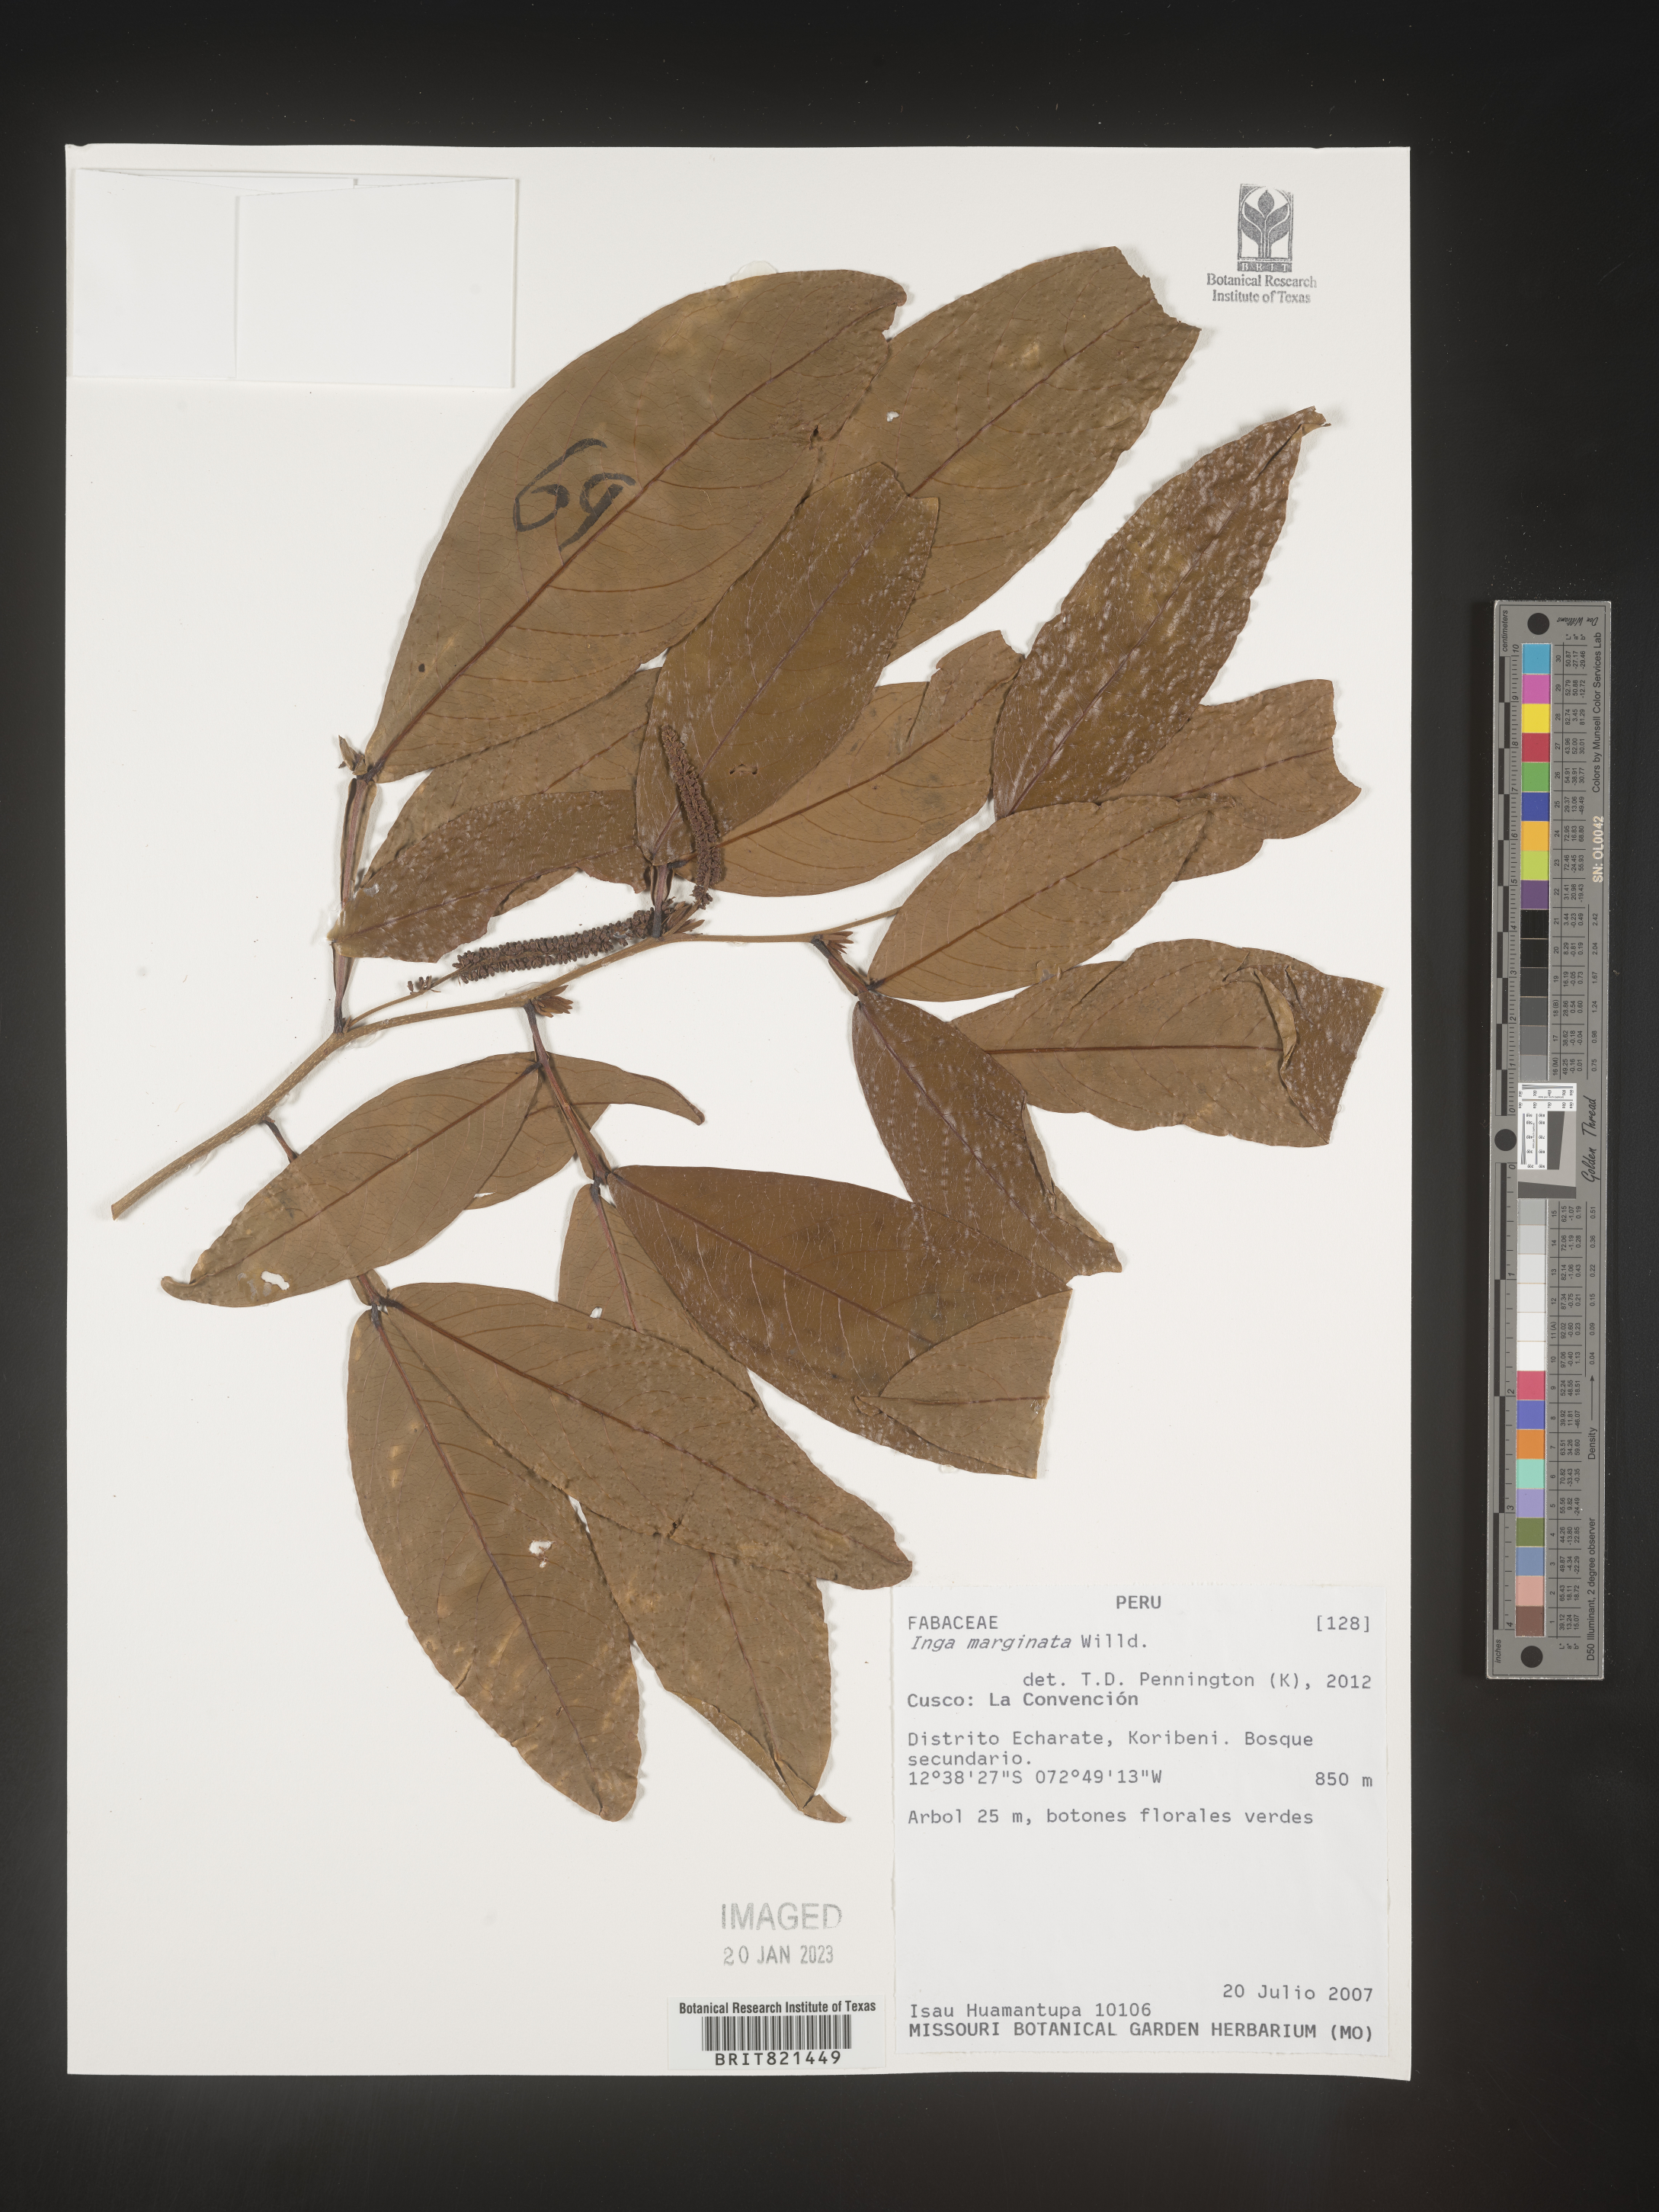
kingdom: Plantae
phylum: Tracheophyta
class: Magnoliopsida
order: Fabales
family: Fabaceae
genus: Inga
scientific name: Inga
